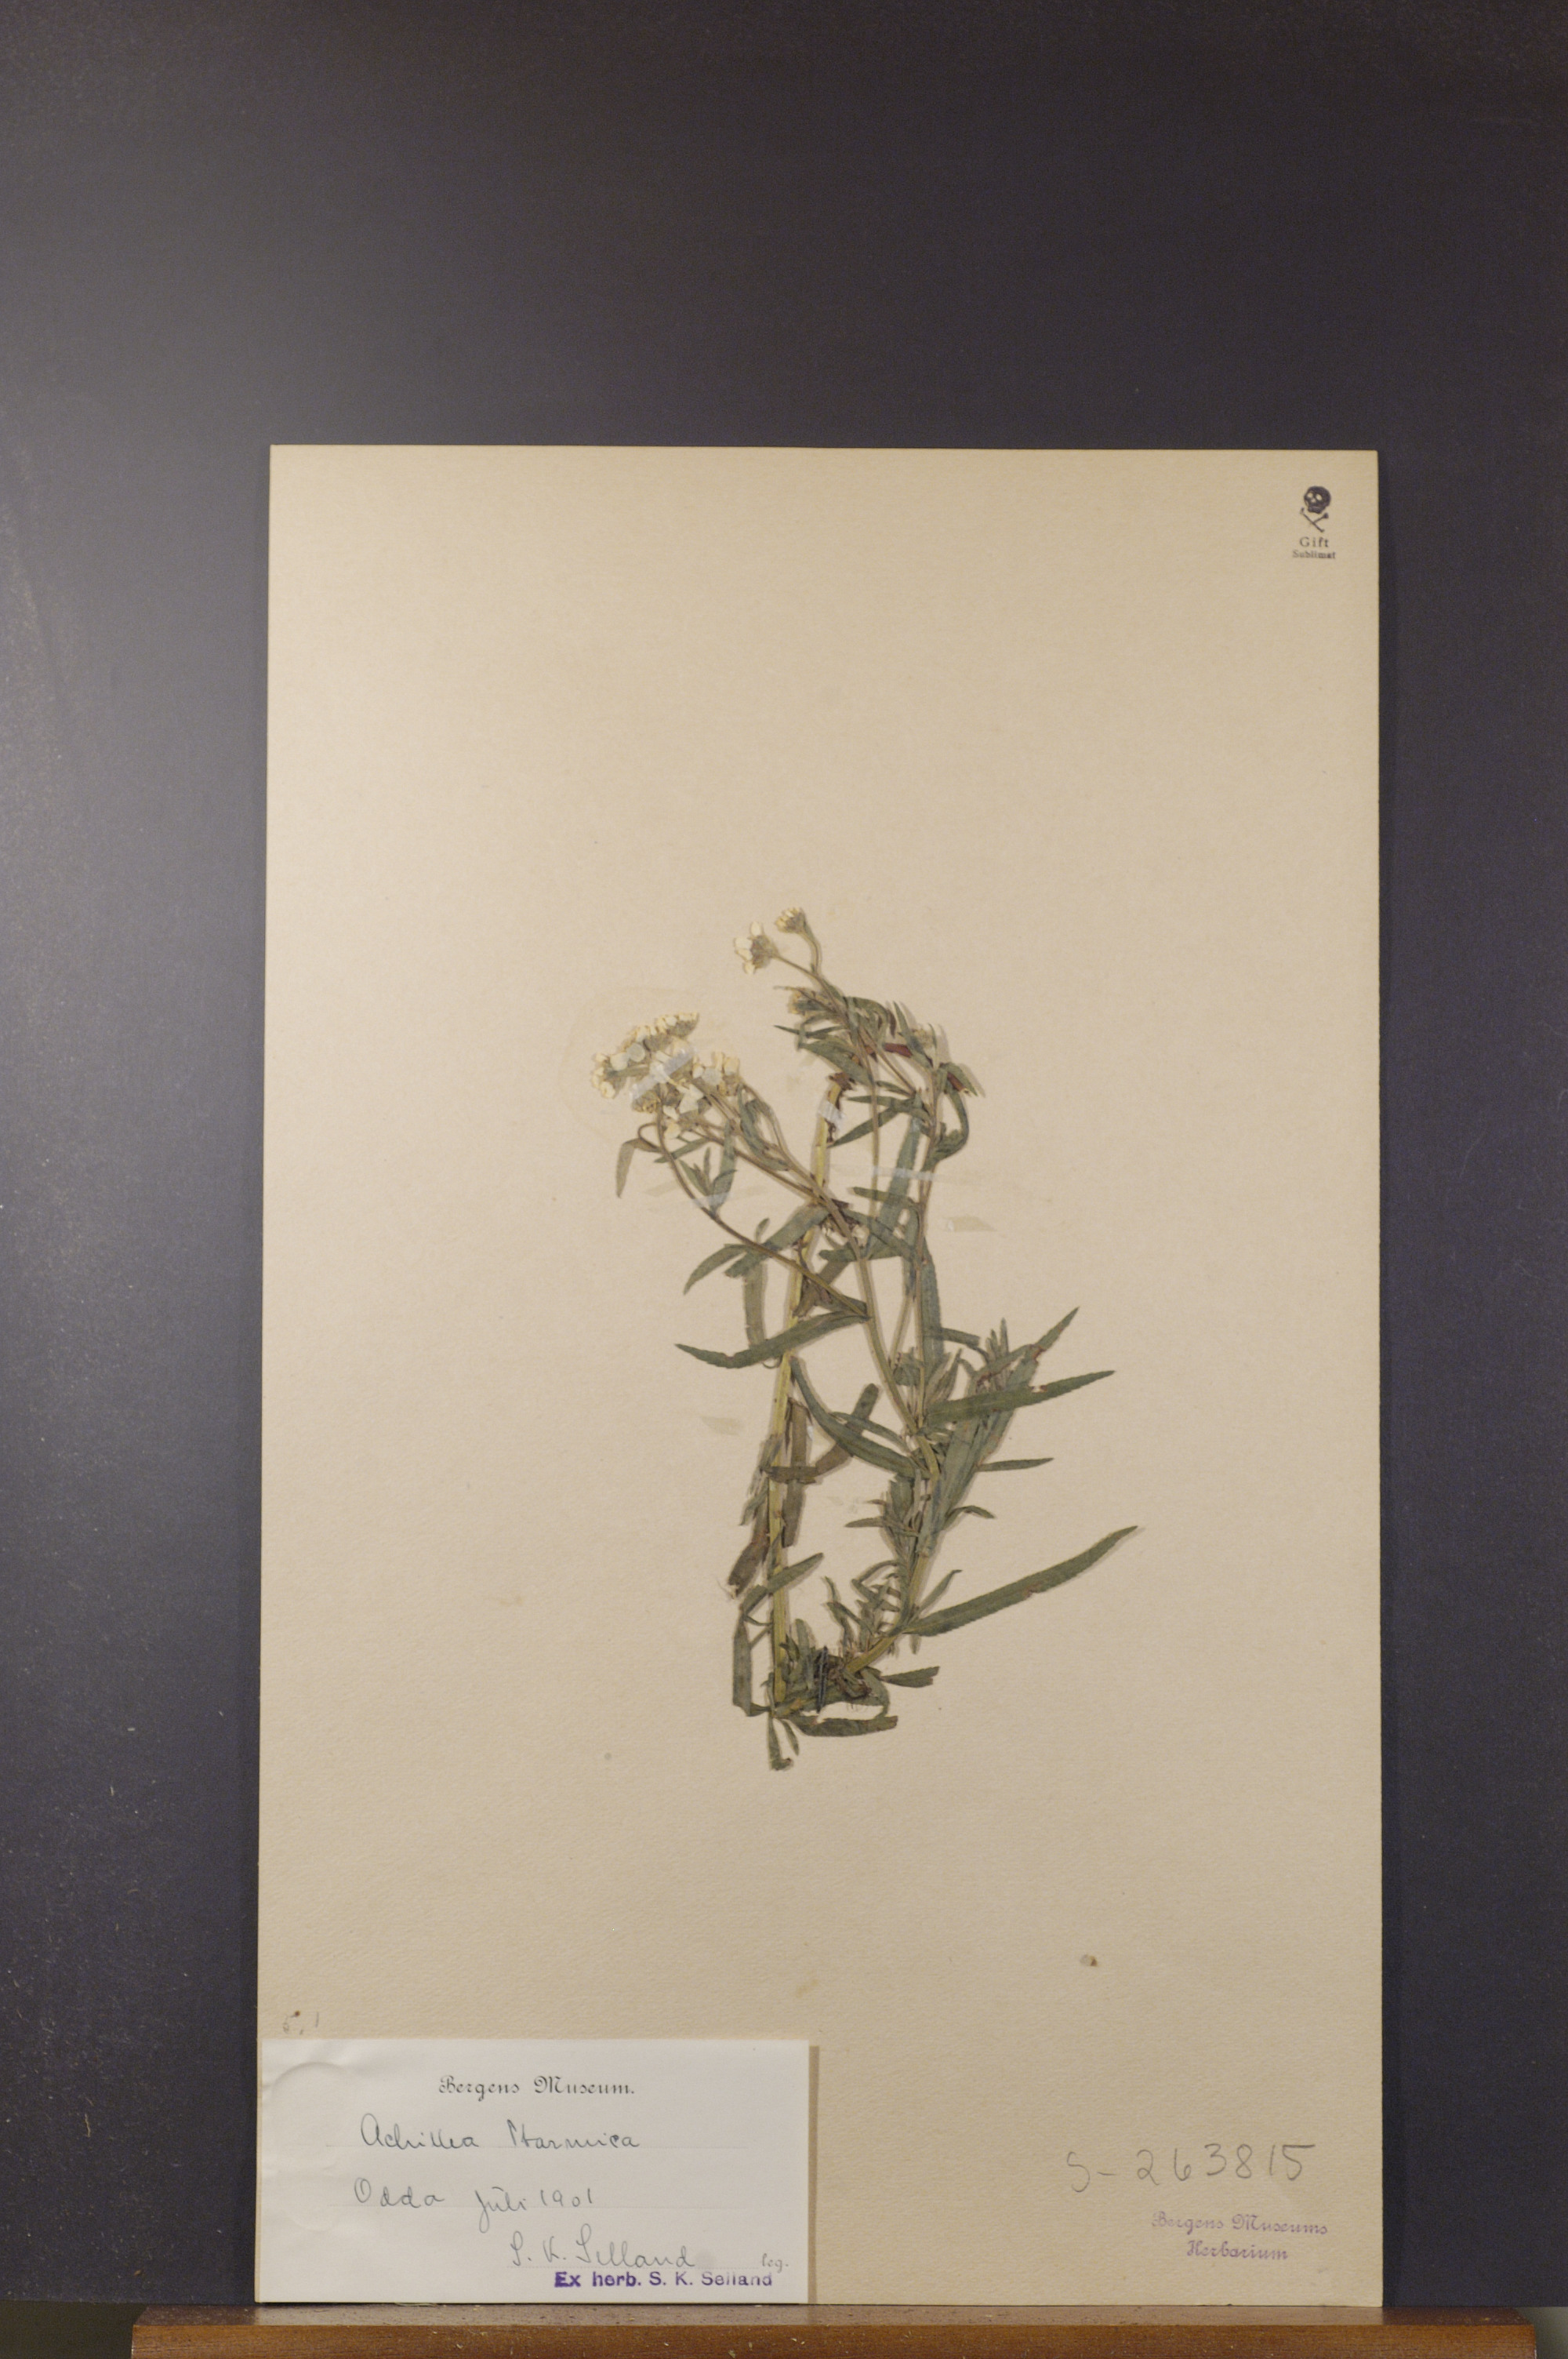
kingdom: Plantae
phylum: Tracheophyta
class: Magnoliopsida
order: Asterales
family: Asteraceae
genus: Achillea
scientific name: Achillea ptarmica
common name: Sneezeweed
